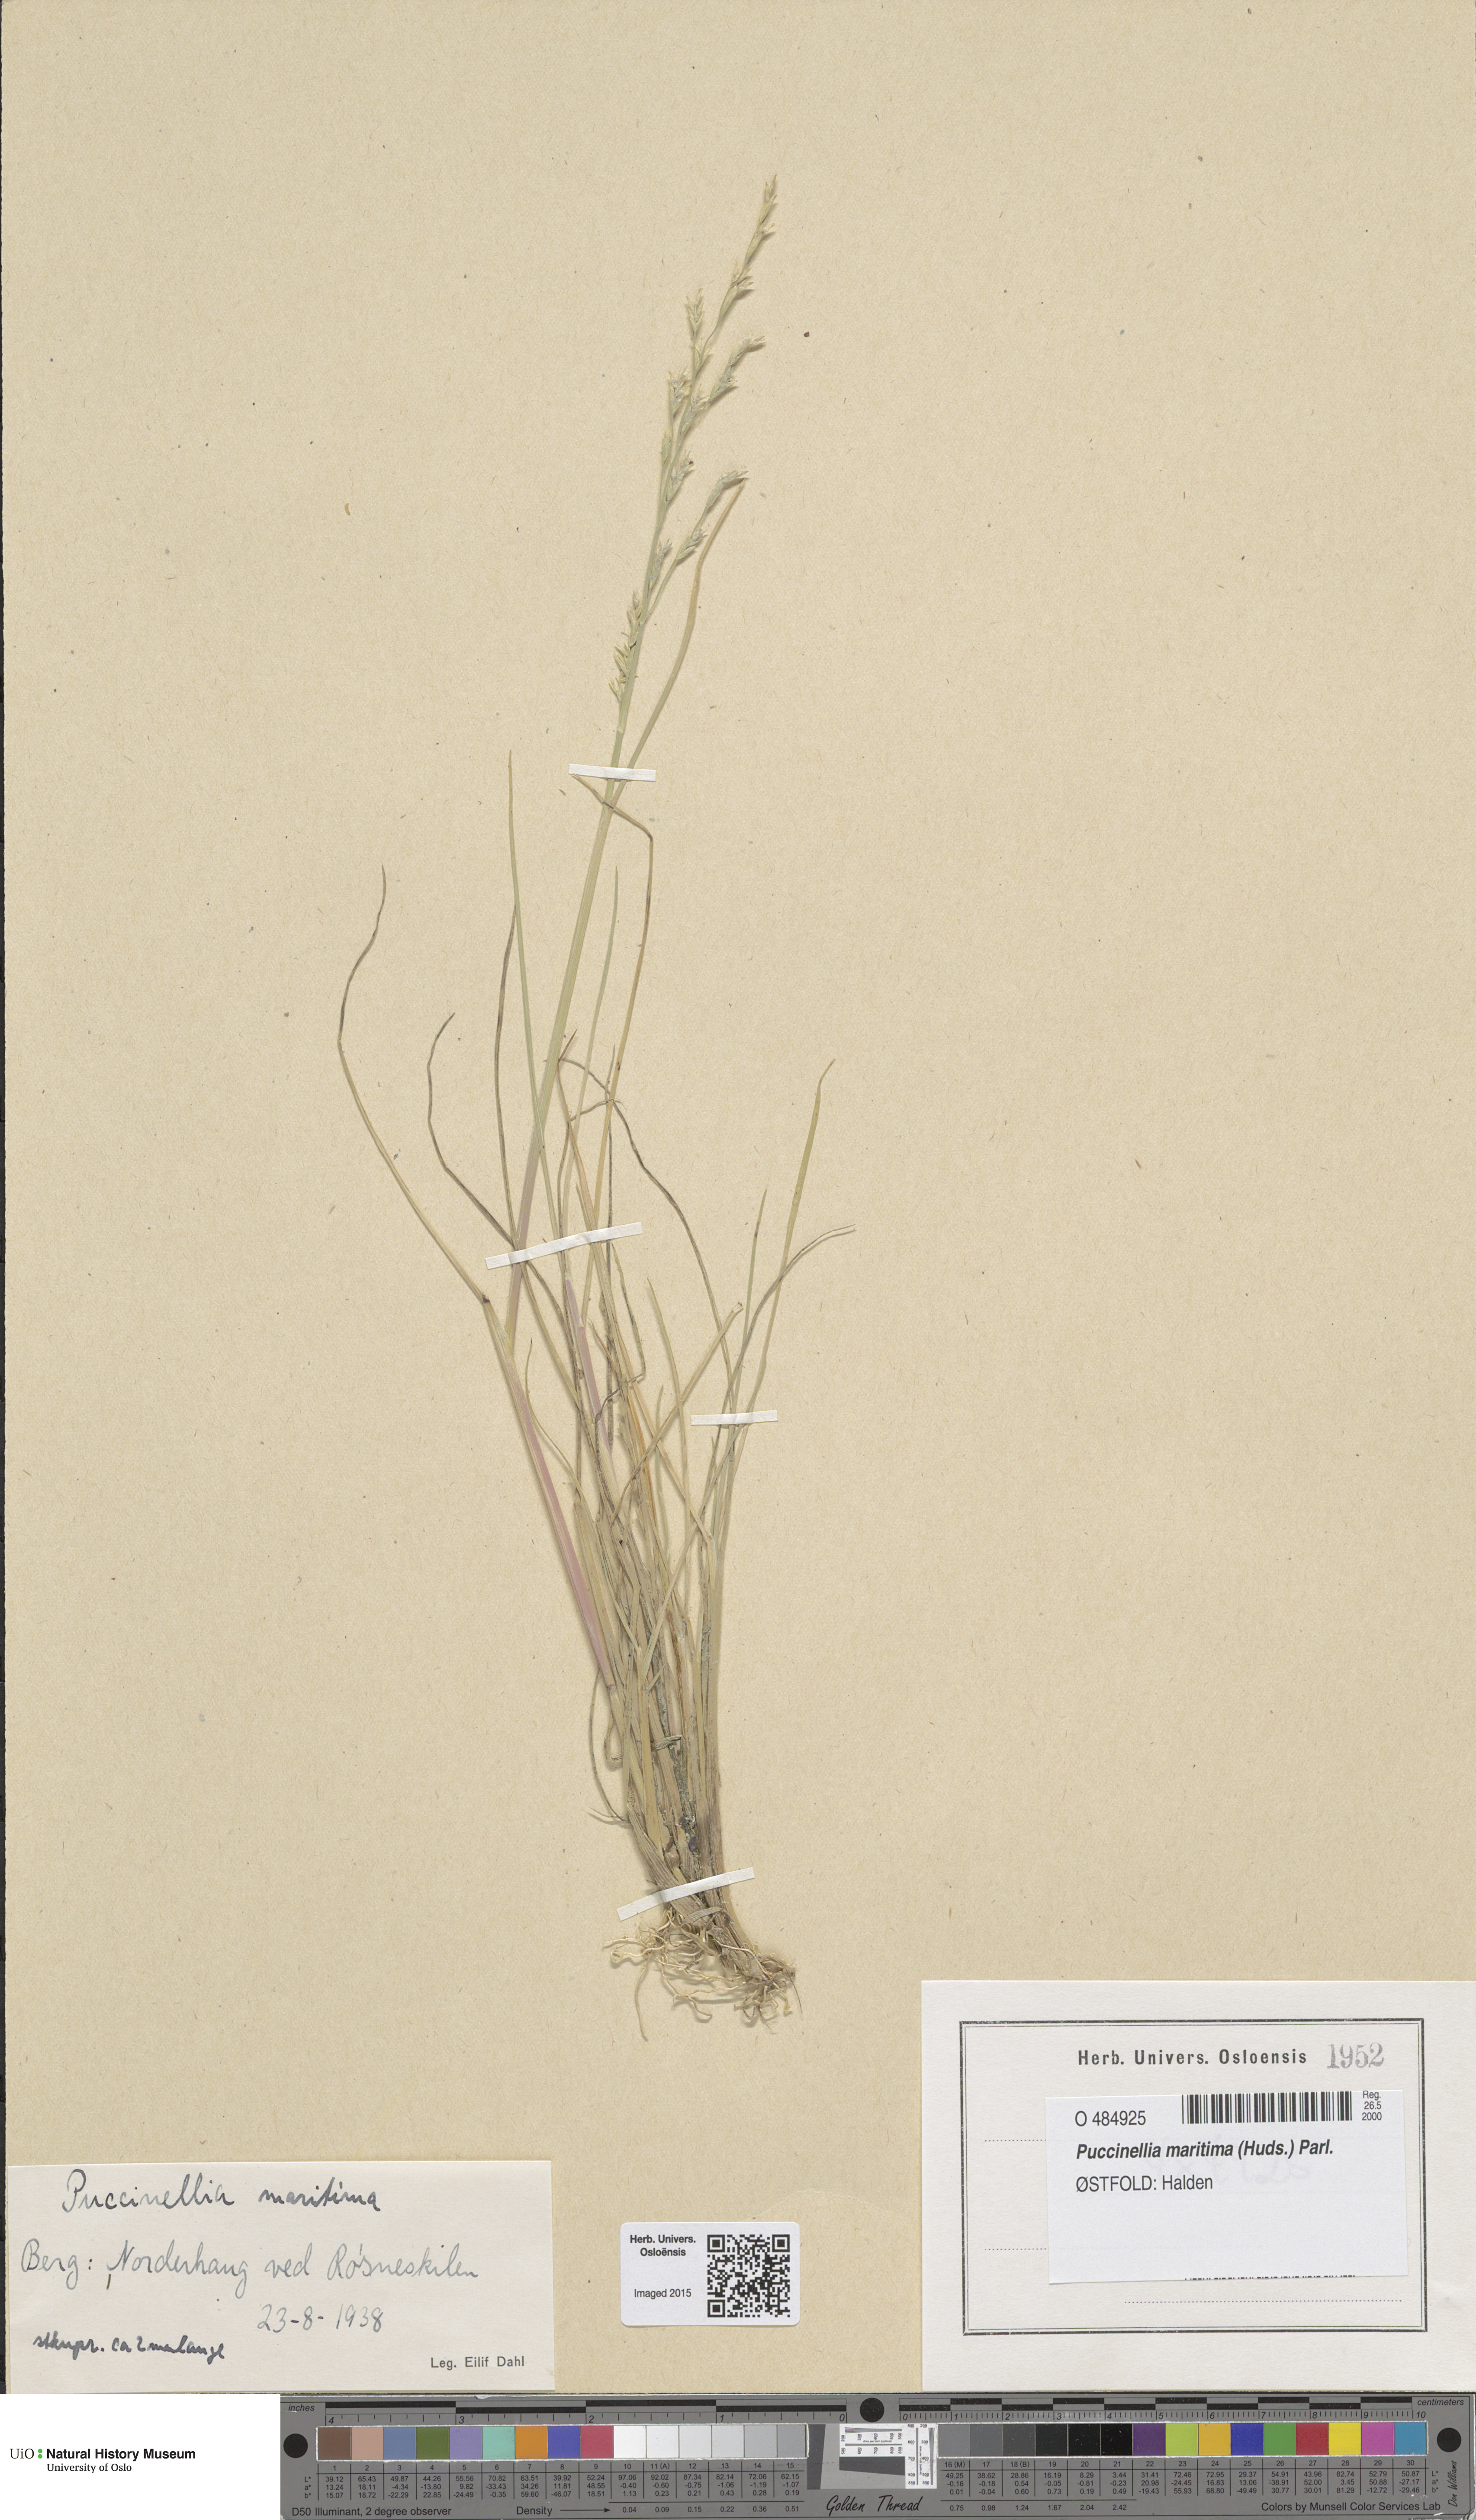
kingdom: Plantae
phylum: Tracheophyta
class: Liliopsida
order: Poales
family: Poaceae
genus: Puccinellia
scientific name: Puccinellia maritima
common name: Common saltmarsh grass
